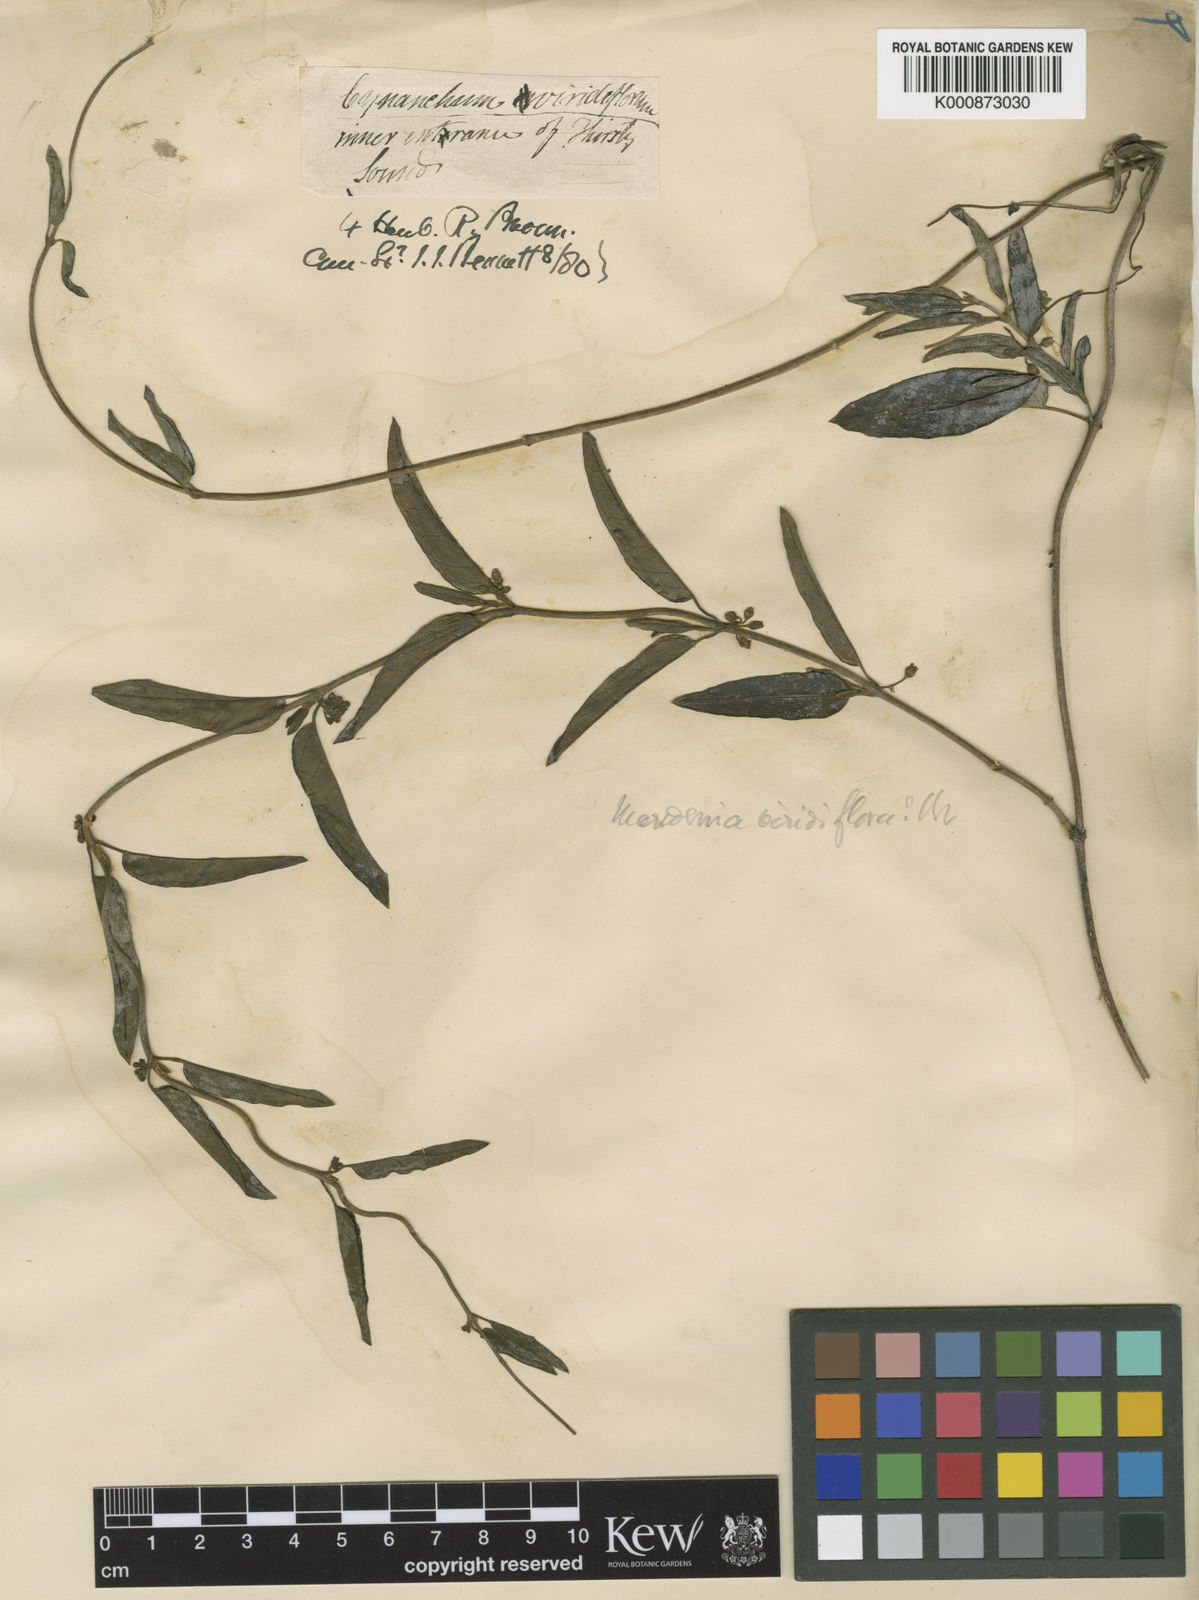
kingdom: Plantae
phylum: Tracheophyta
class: Magnoliopsida
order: Gentianales
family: Apocynaceae
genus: Leichhardtia
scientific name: Leichhardtia viridiflora
